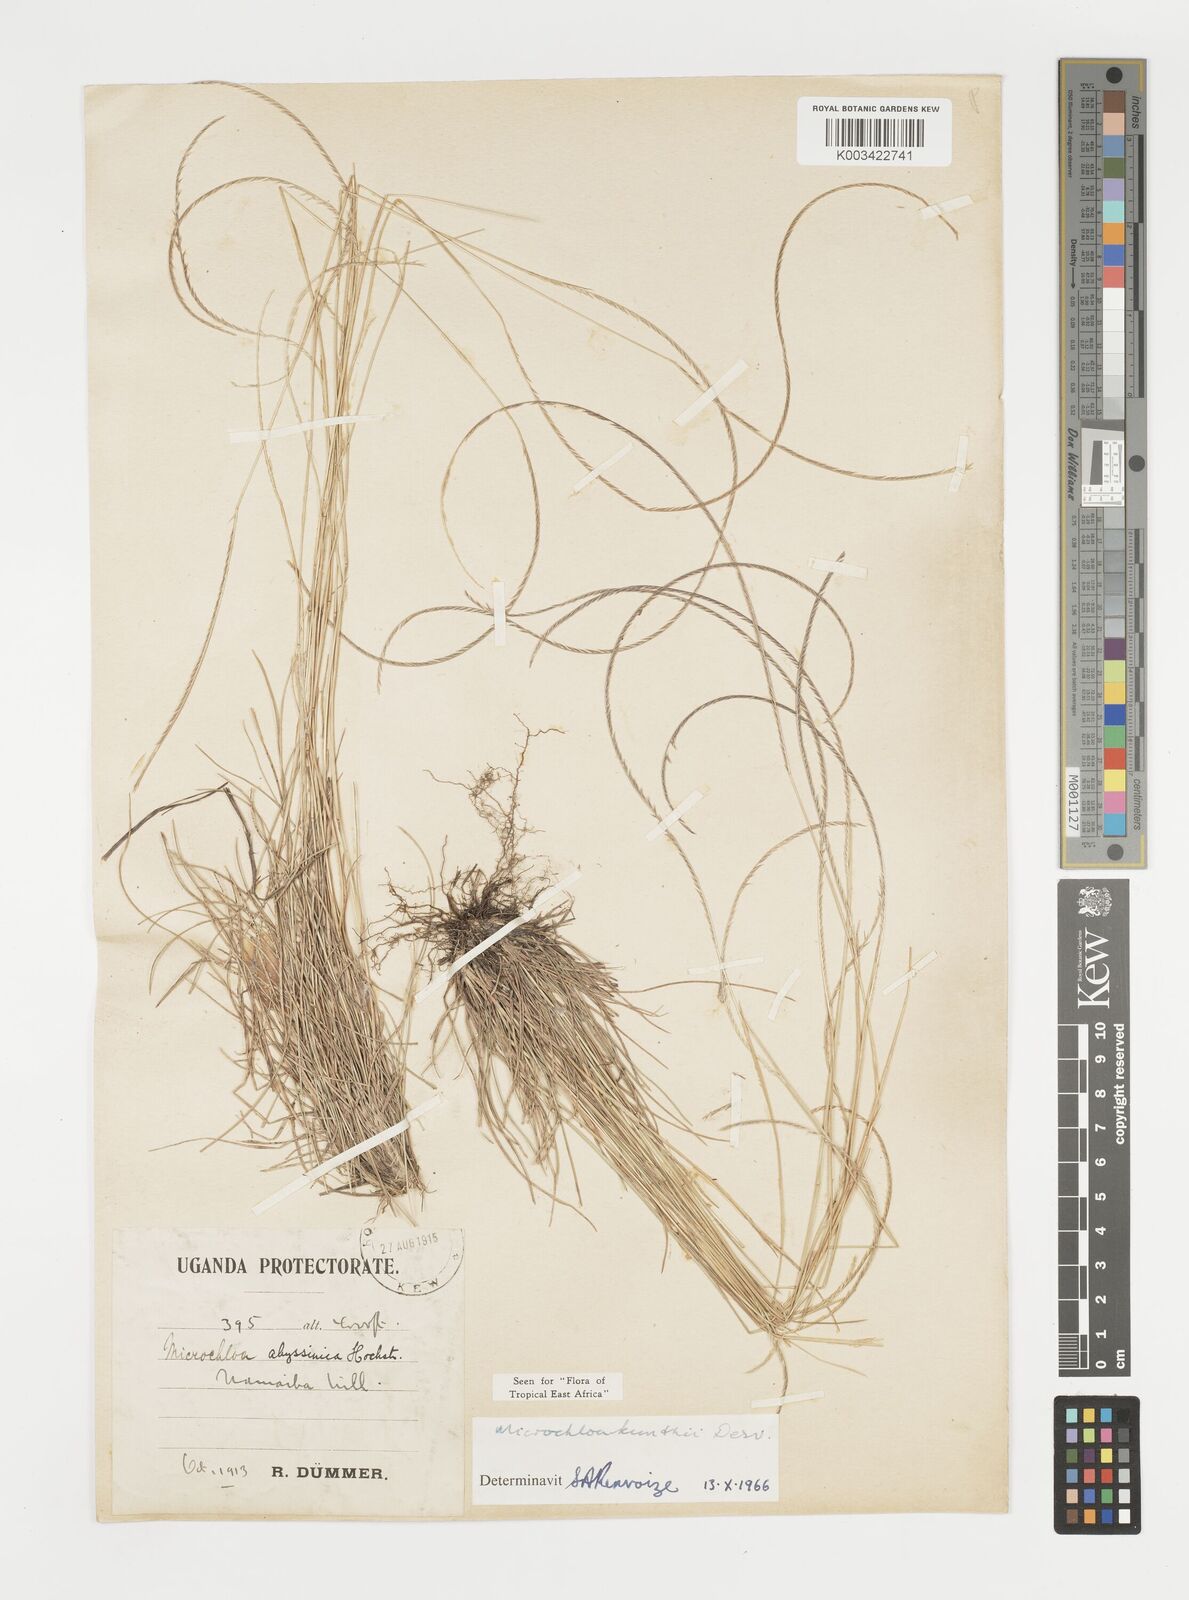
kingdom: Plantae
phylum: Tracheophyta
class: Liliopsida
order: Poales
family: Poaceae
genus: Microchloa
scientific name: Microchloa kunthii
